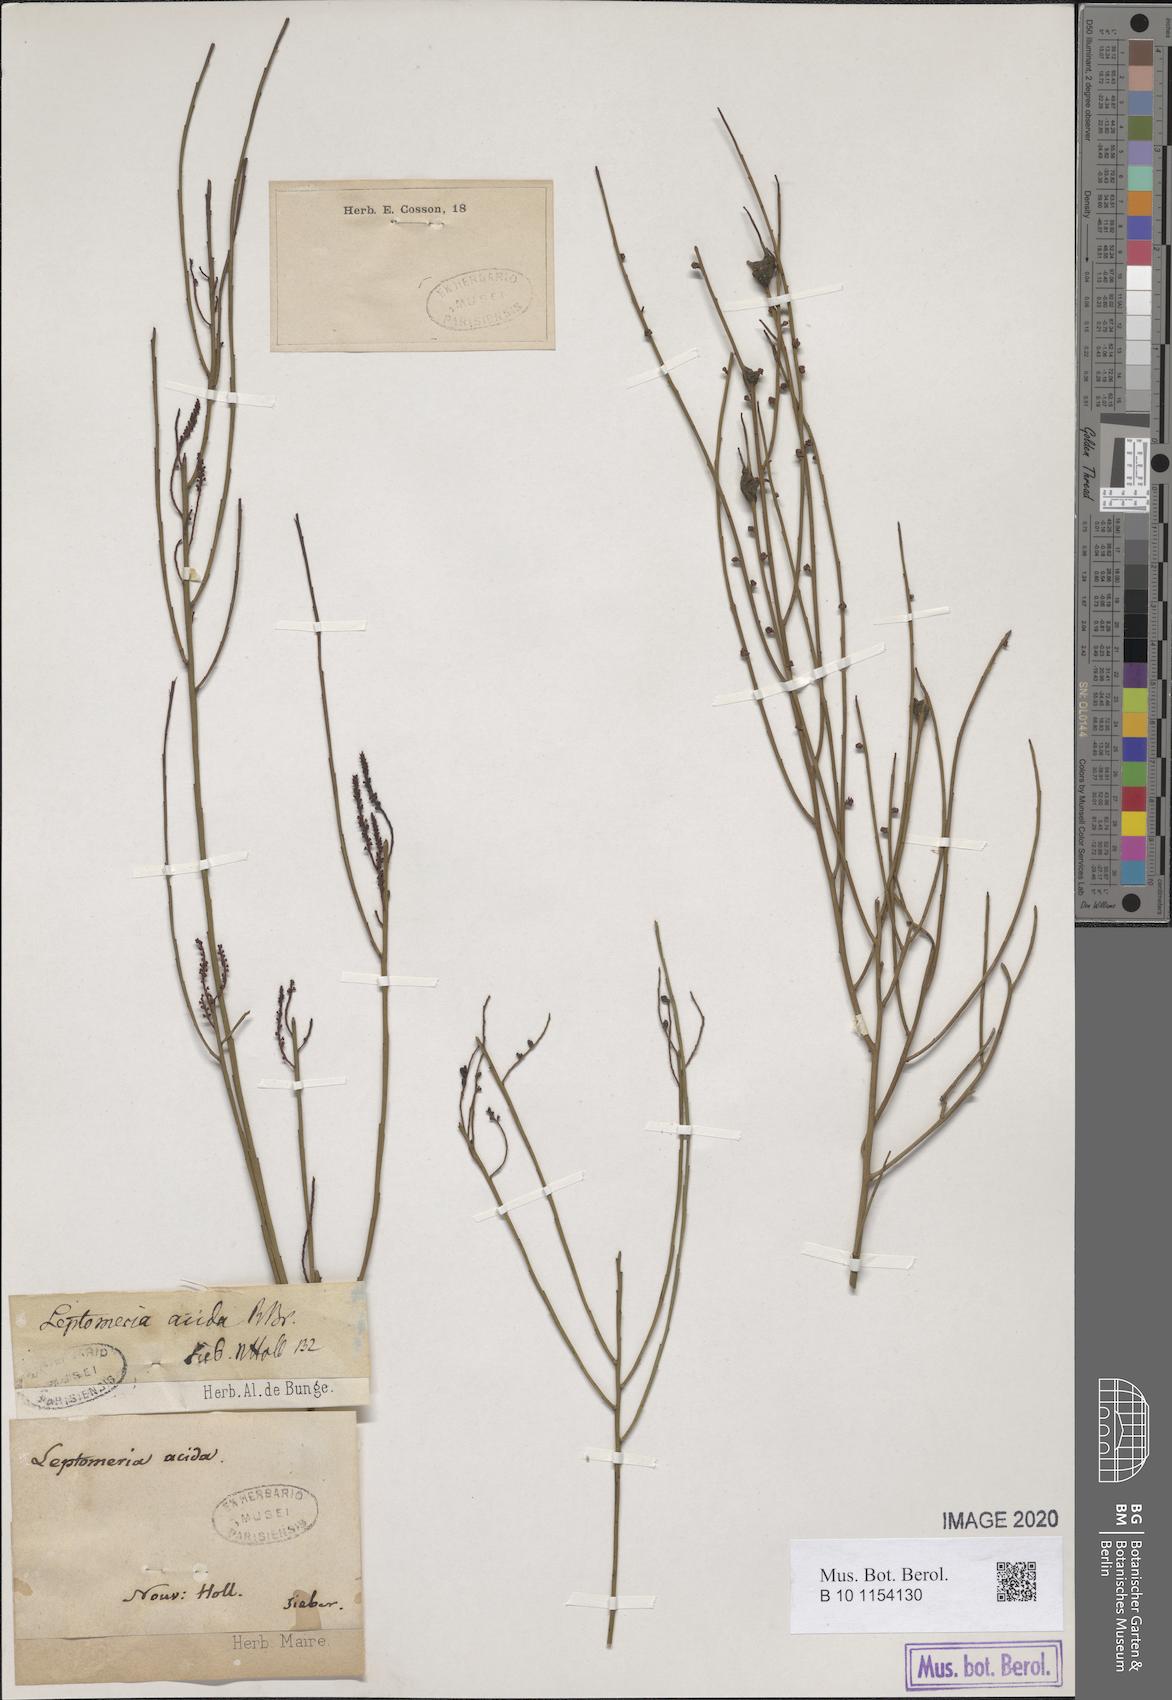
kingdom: Plantae
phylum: Tracheophyta
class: Magnoliopsida
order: Santalales
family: Amphorogynaceae
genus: Leptomeria
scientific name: Leptomeria acida
